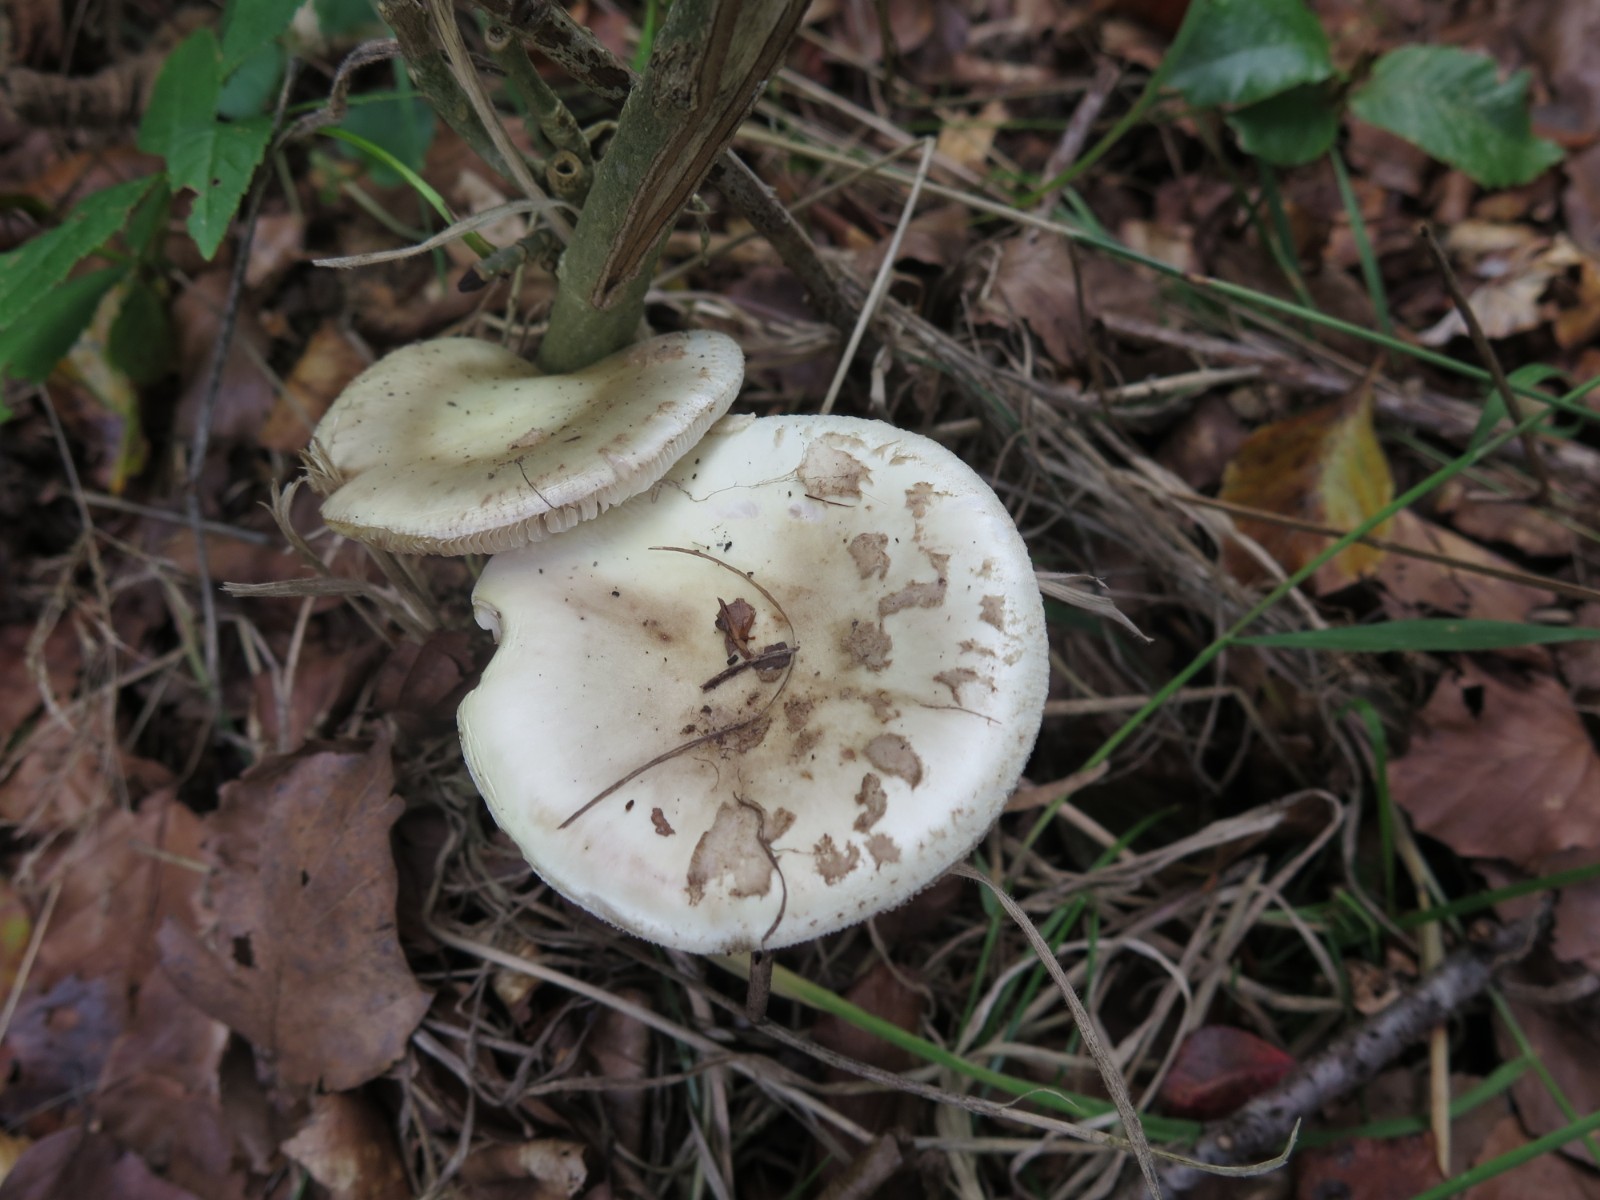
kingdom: Fungi
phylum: Basidiomycota
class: Agaricomycetes
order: Agaricales
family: Amanitaceae
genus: Amanita
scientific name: Amanita porphyria
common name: porfyr-fluesvamp
